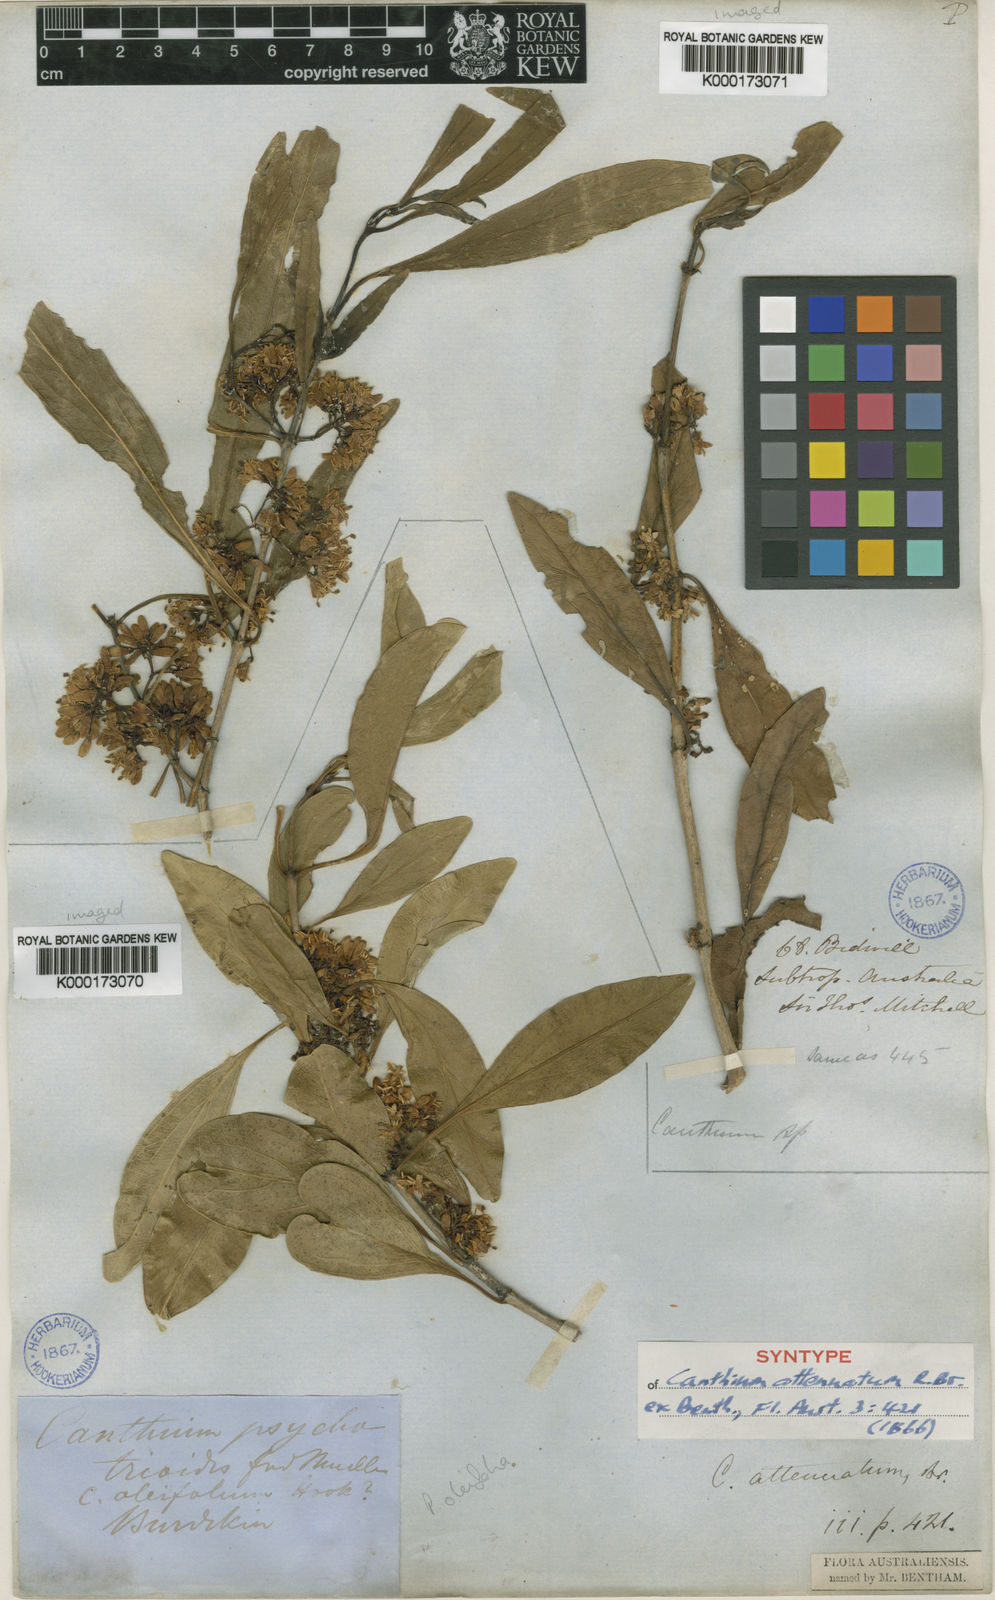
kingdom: Plantae
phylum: Tracheophyta
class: Magnoliopsida
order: Gentianales
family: Rubiaceae
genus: Psydrax
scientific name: Psydrax attenuatus
